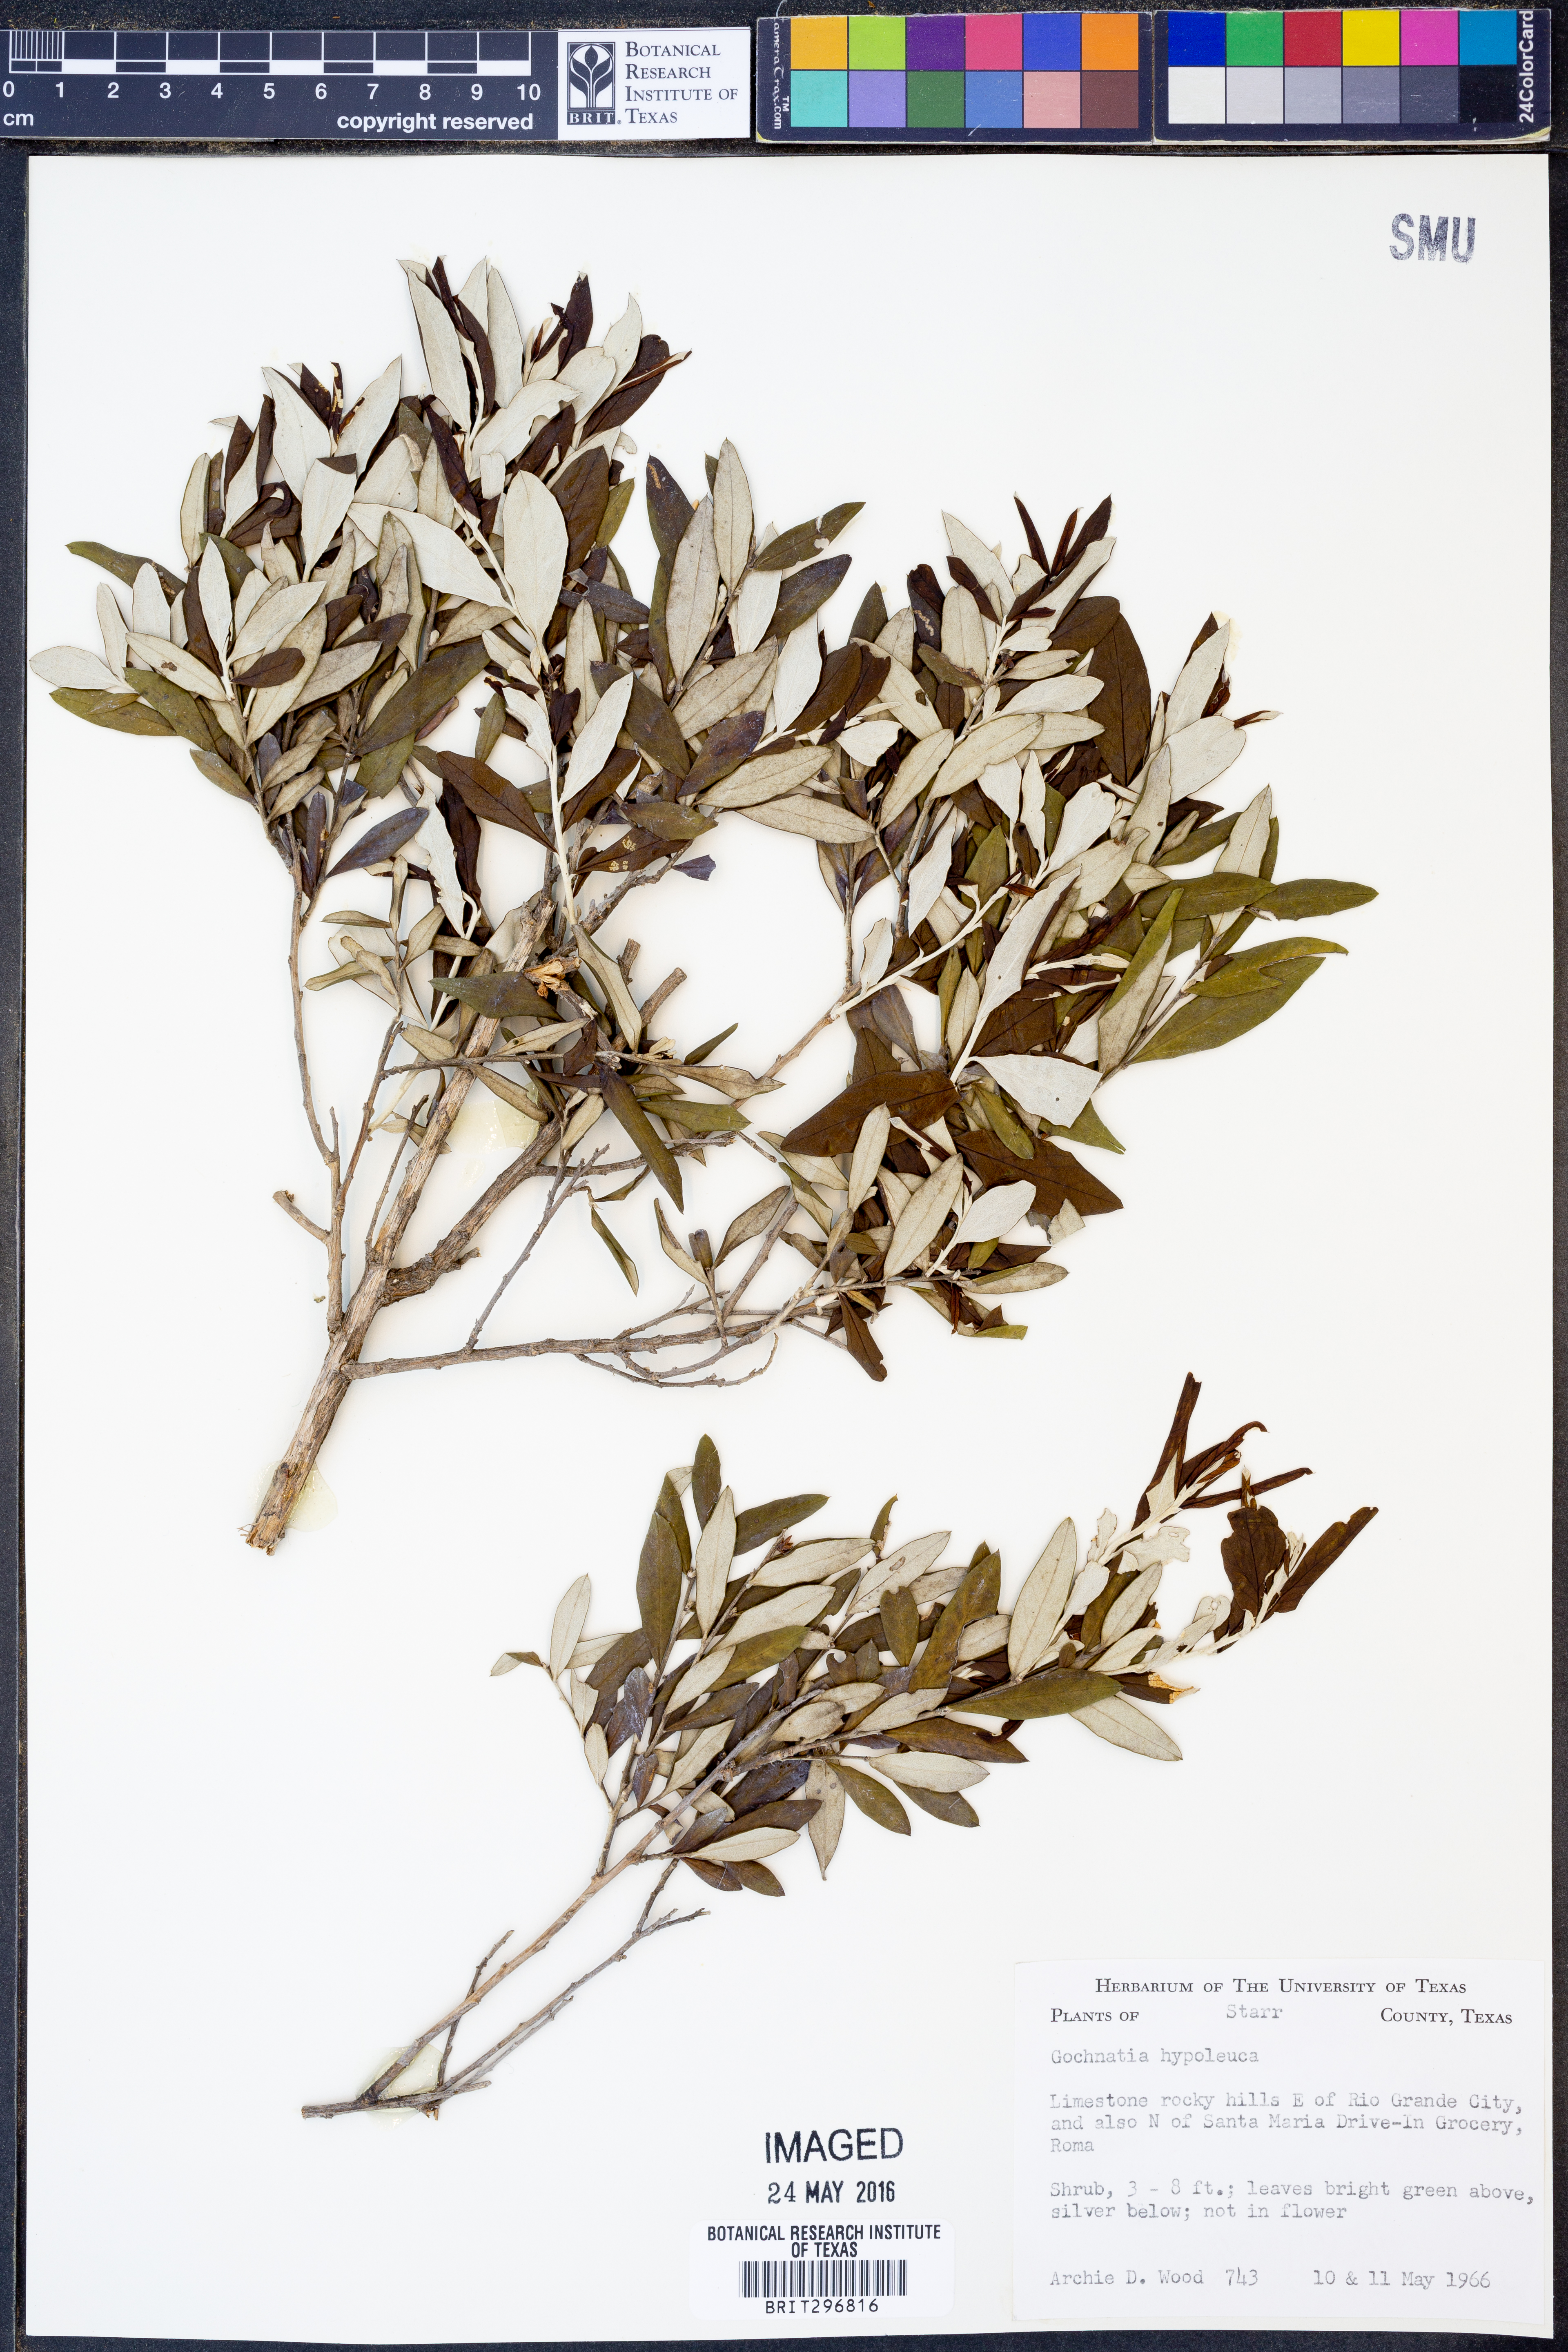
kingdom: Plantae
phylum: Tracheophyta
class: Magnoliopsida
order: Asterales
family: Asteraceae
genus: Nahuatlea
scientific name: Nahuatlea hypoleuca
